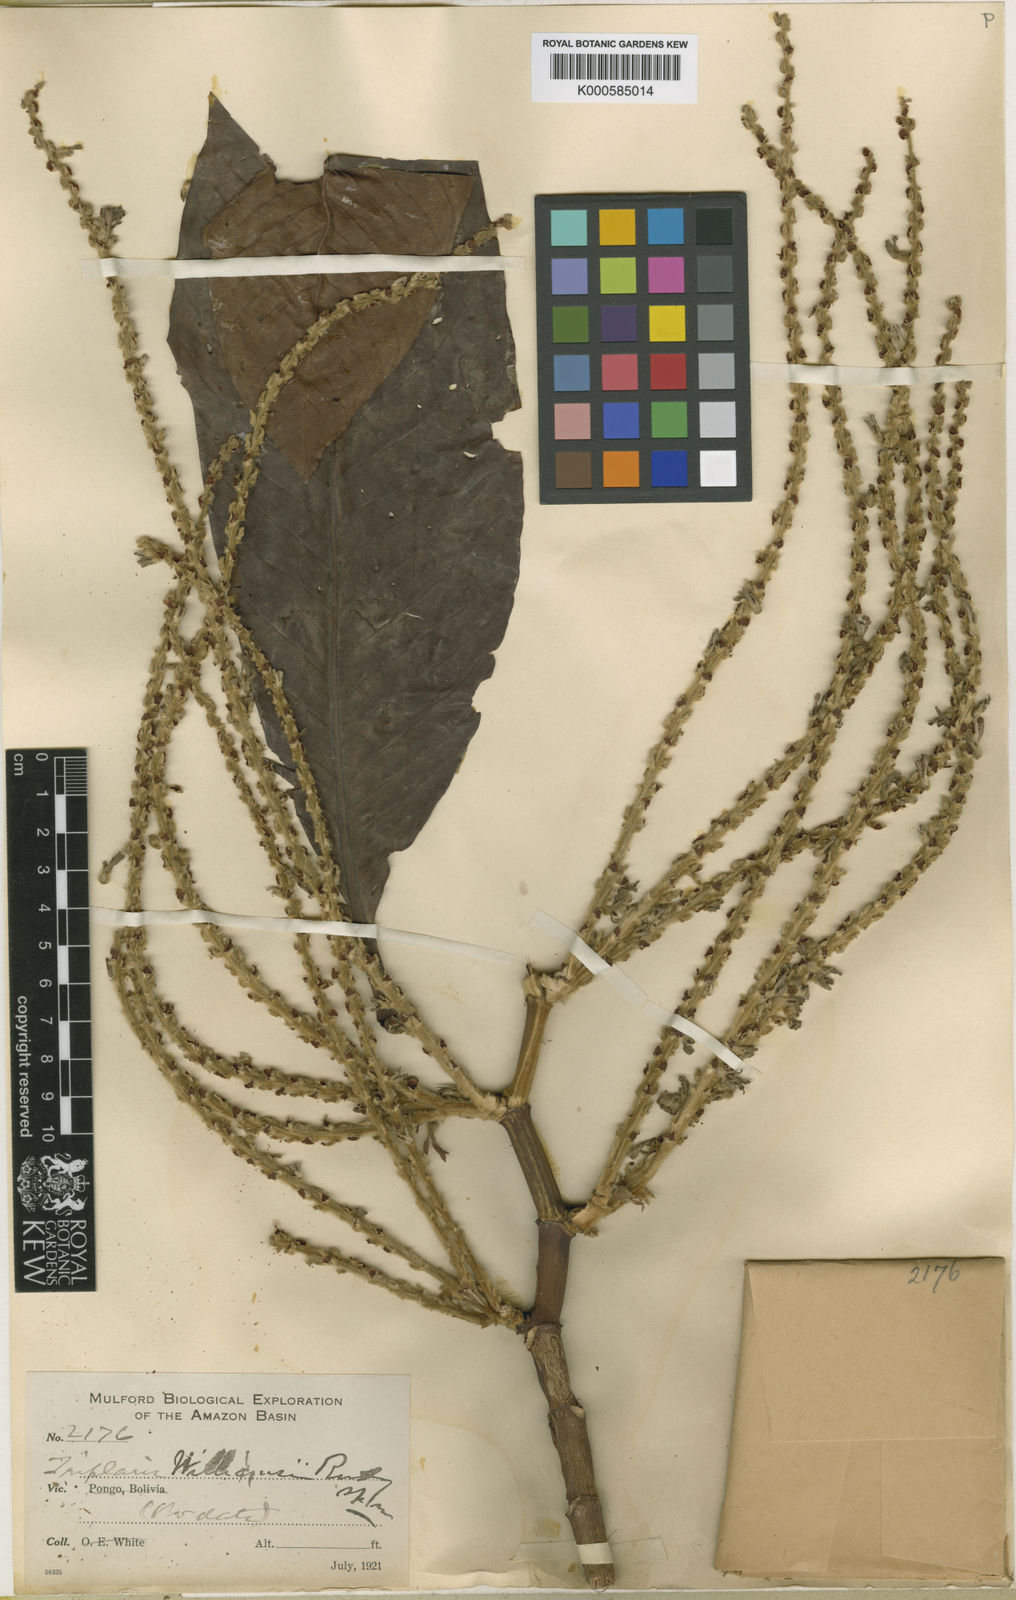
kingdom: Plantae
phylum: Tracheophyta
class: Magnoliopsida
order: Caryophyllales
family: Polygonaceae
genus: Triplaris
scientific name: Triplaris americana
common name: Ant-tree
